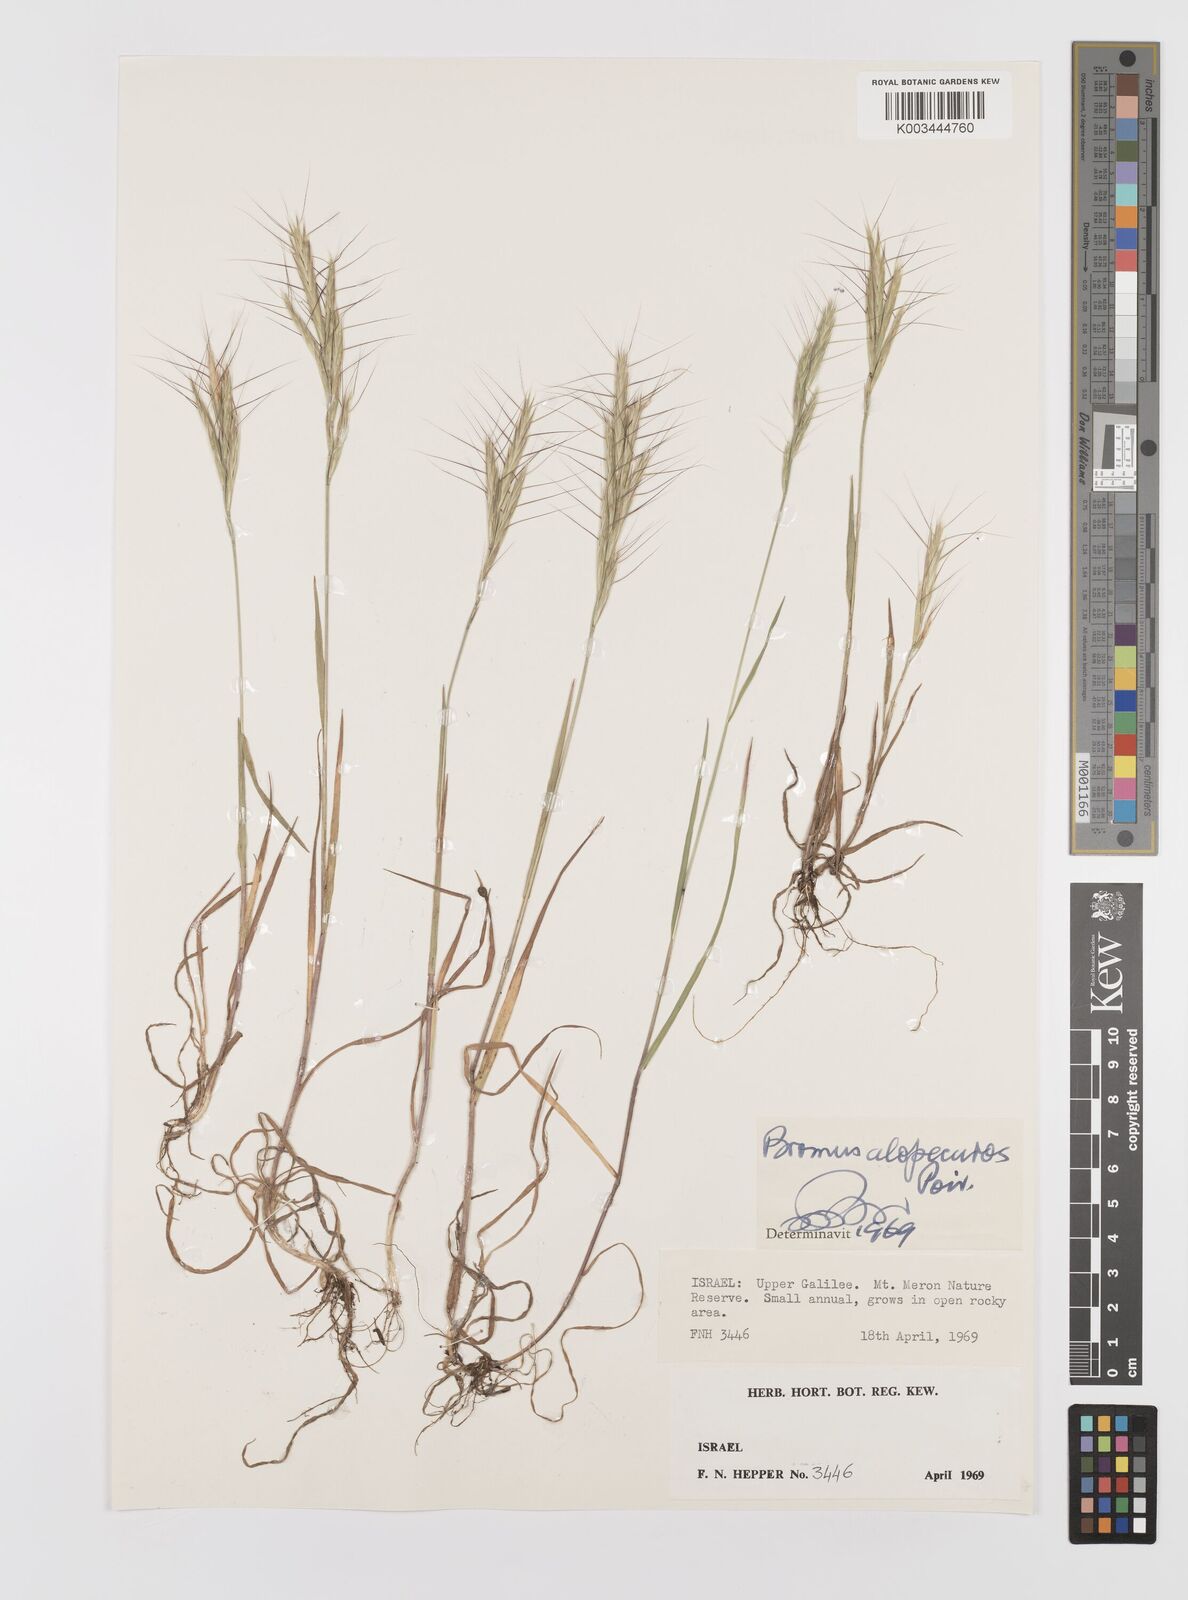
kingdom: Plantae
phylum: Tracheophyta
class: Liliopsida
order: Poales
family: Poaceae
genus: Bromus
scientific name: Bromus alopecuros
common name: Weedy brome
